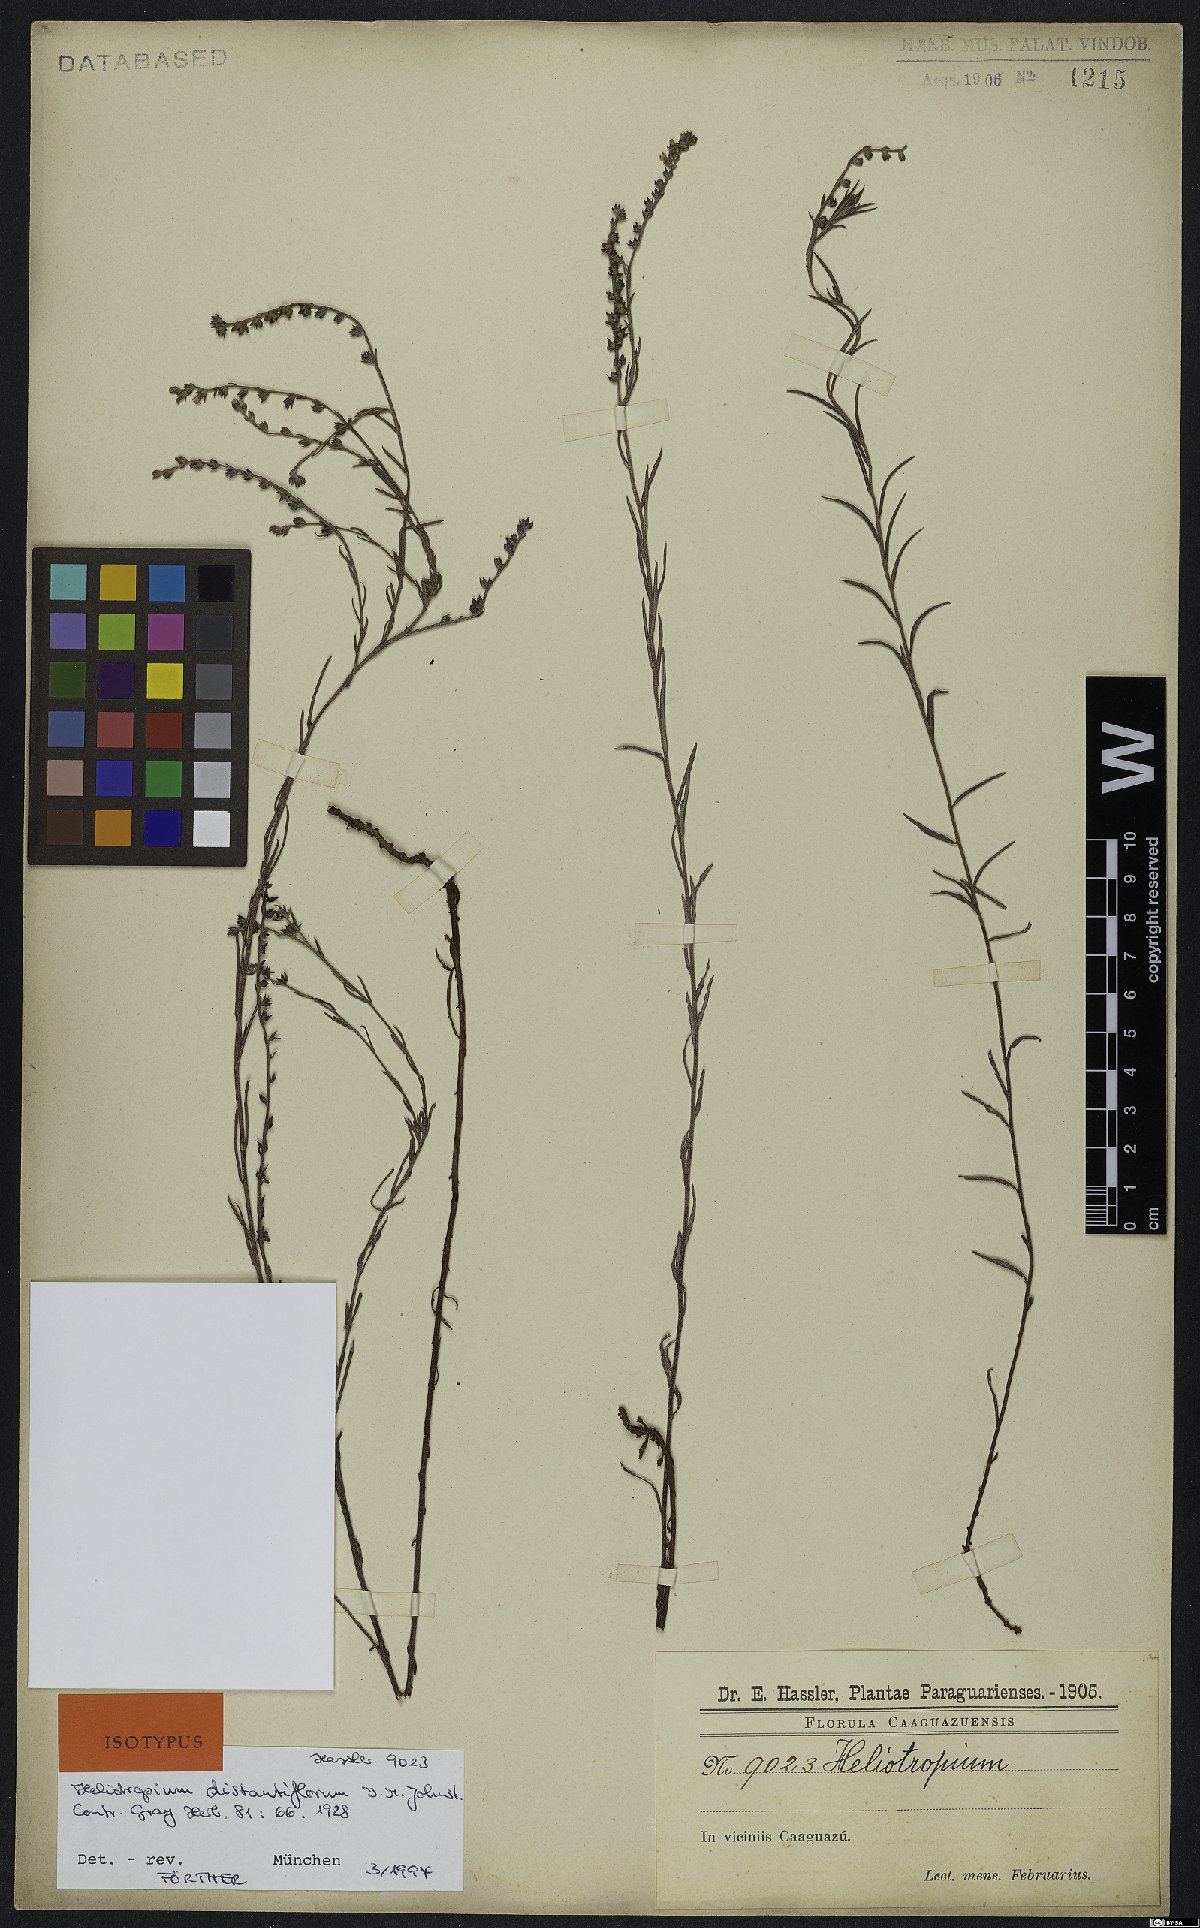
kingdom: Plantae
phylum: Tracheophyta
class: Magnoliopsida
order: Boraginales
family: Heliotropiaceae
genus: Euploca
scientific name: Euploca distantiflora
